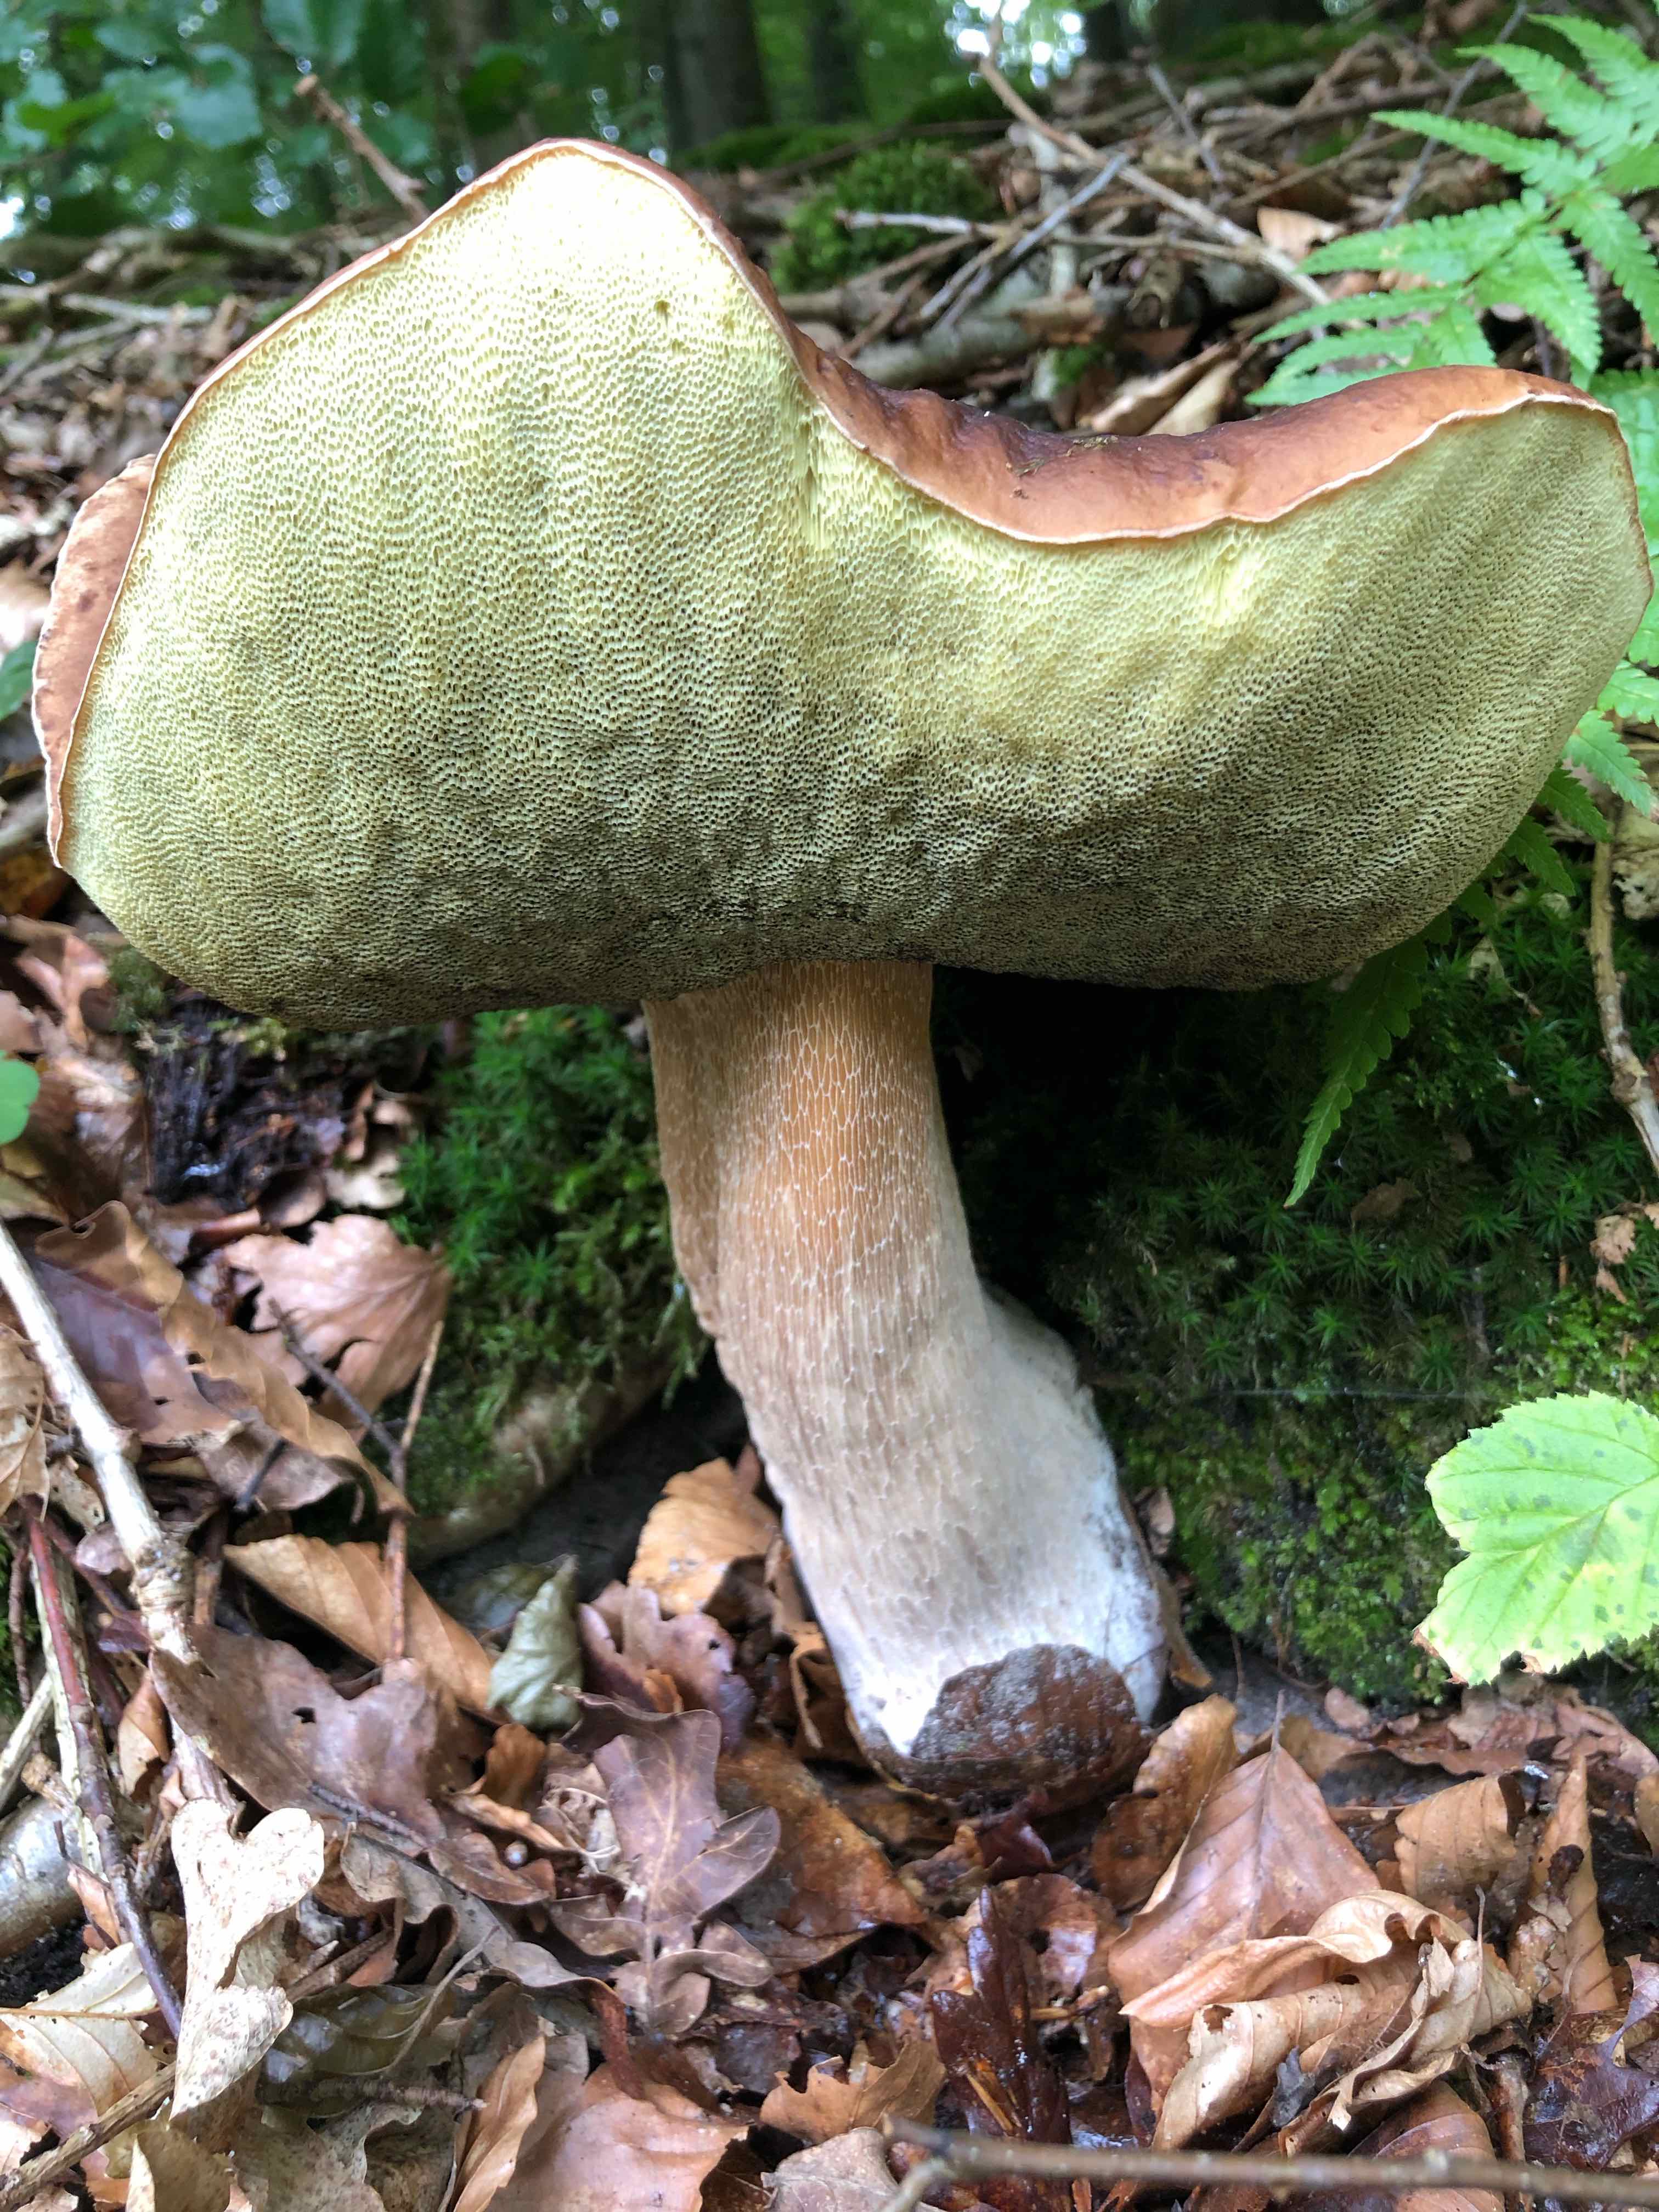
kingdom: Fungi
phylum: Basidiomycota
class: Agaricomycetes
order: Boletales
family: Boletaceae
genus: Boletus
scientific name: Boletus edulis
